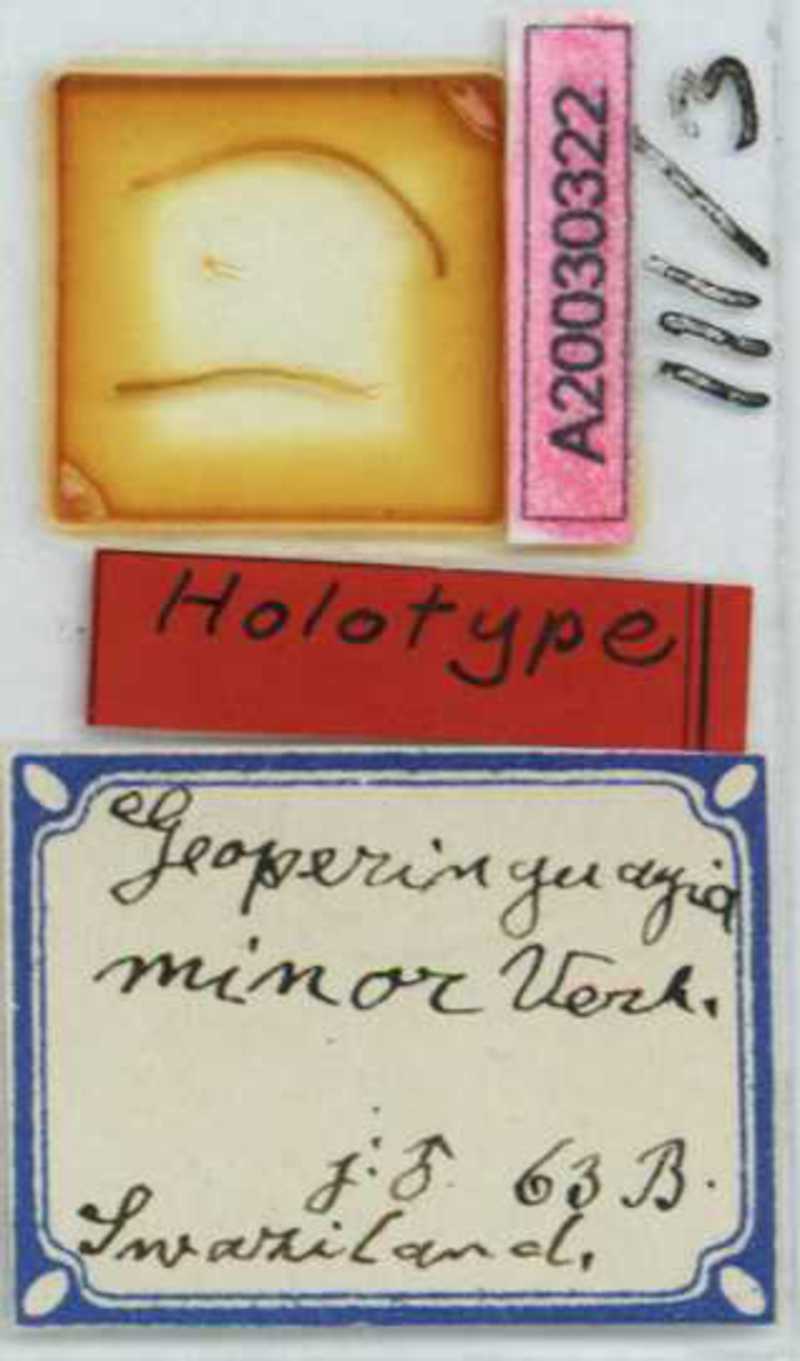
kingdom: Animalia
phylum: Arthropoda
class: Chilopoda
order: Geophilomorpha
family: Geophilidae
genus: Geoperingueyia
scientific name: Geoperingueyia minor
